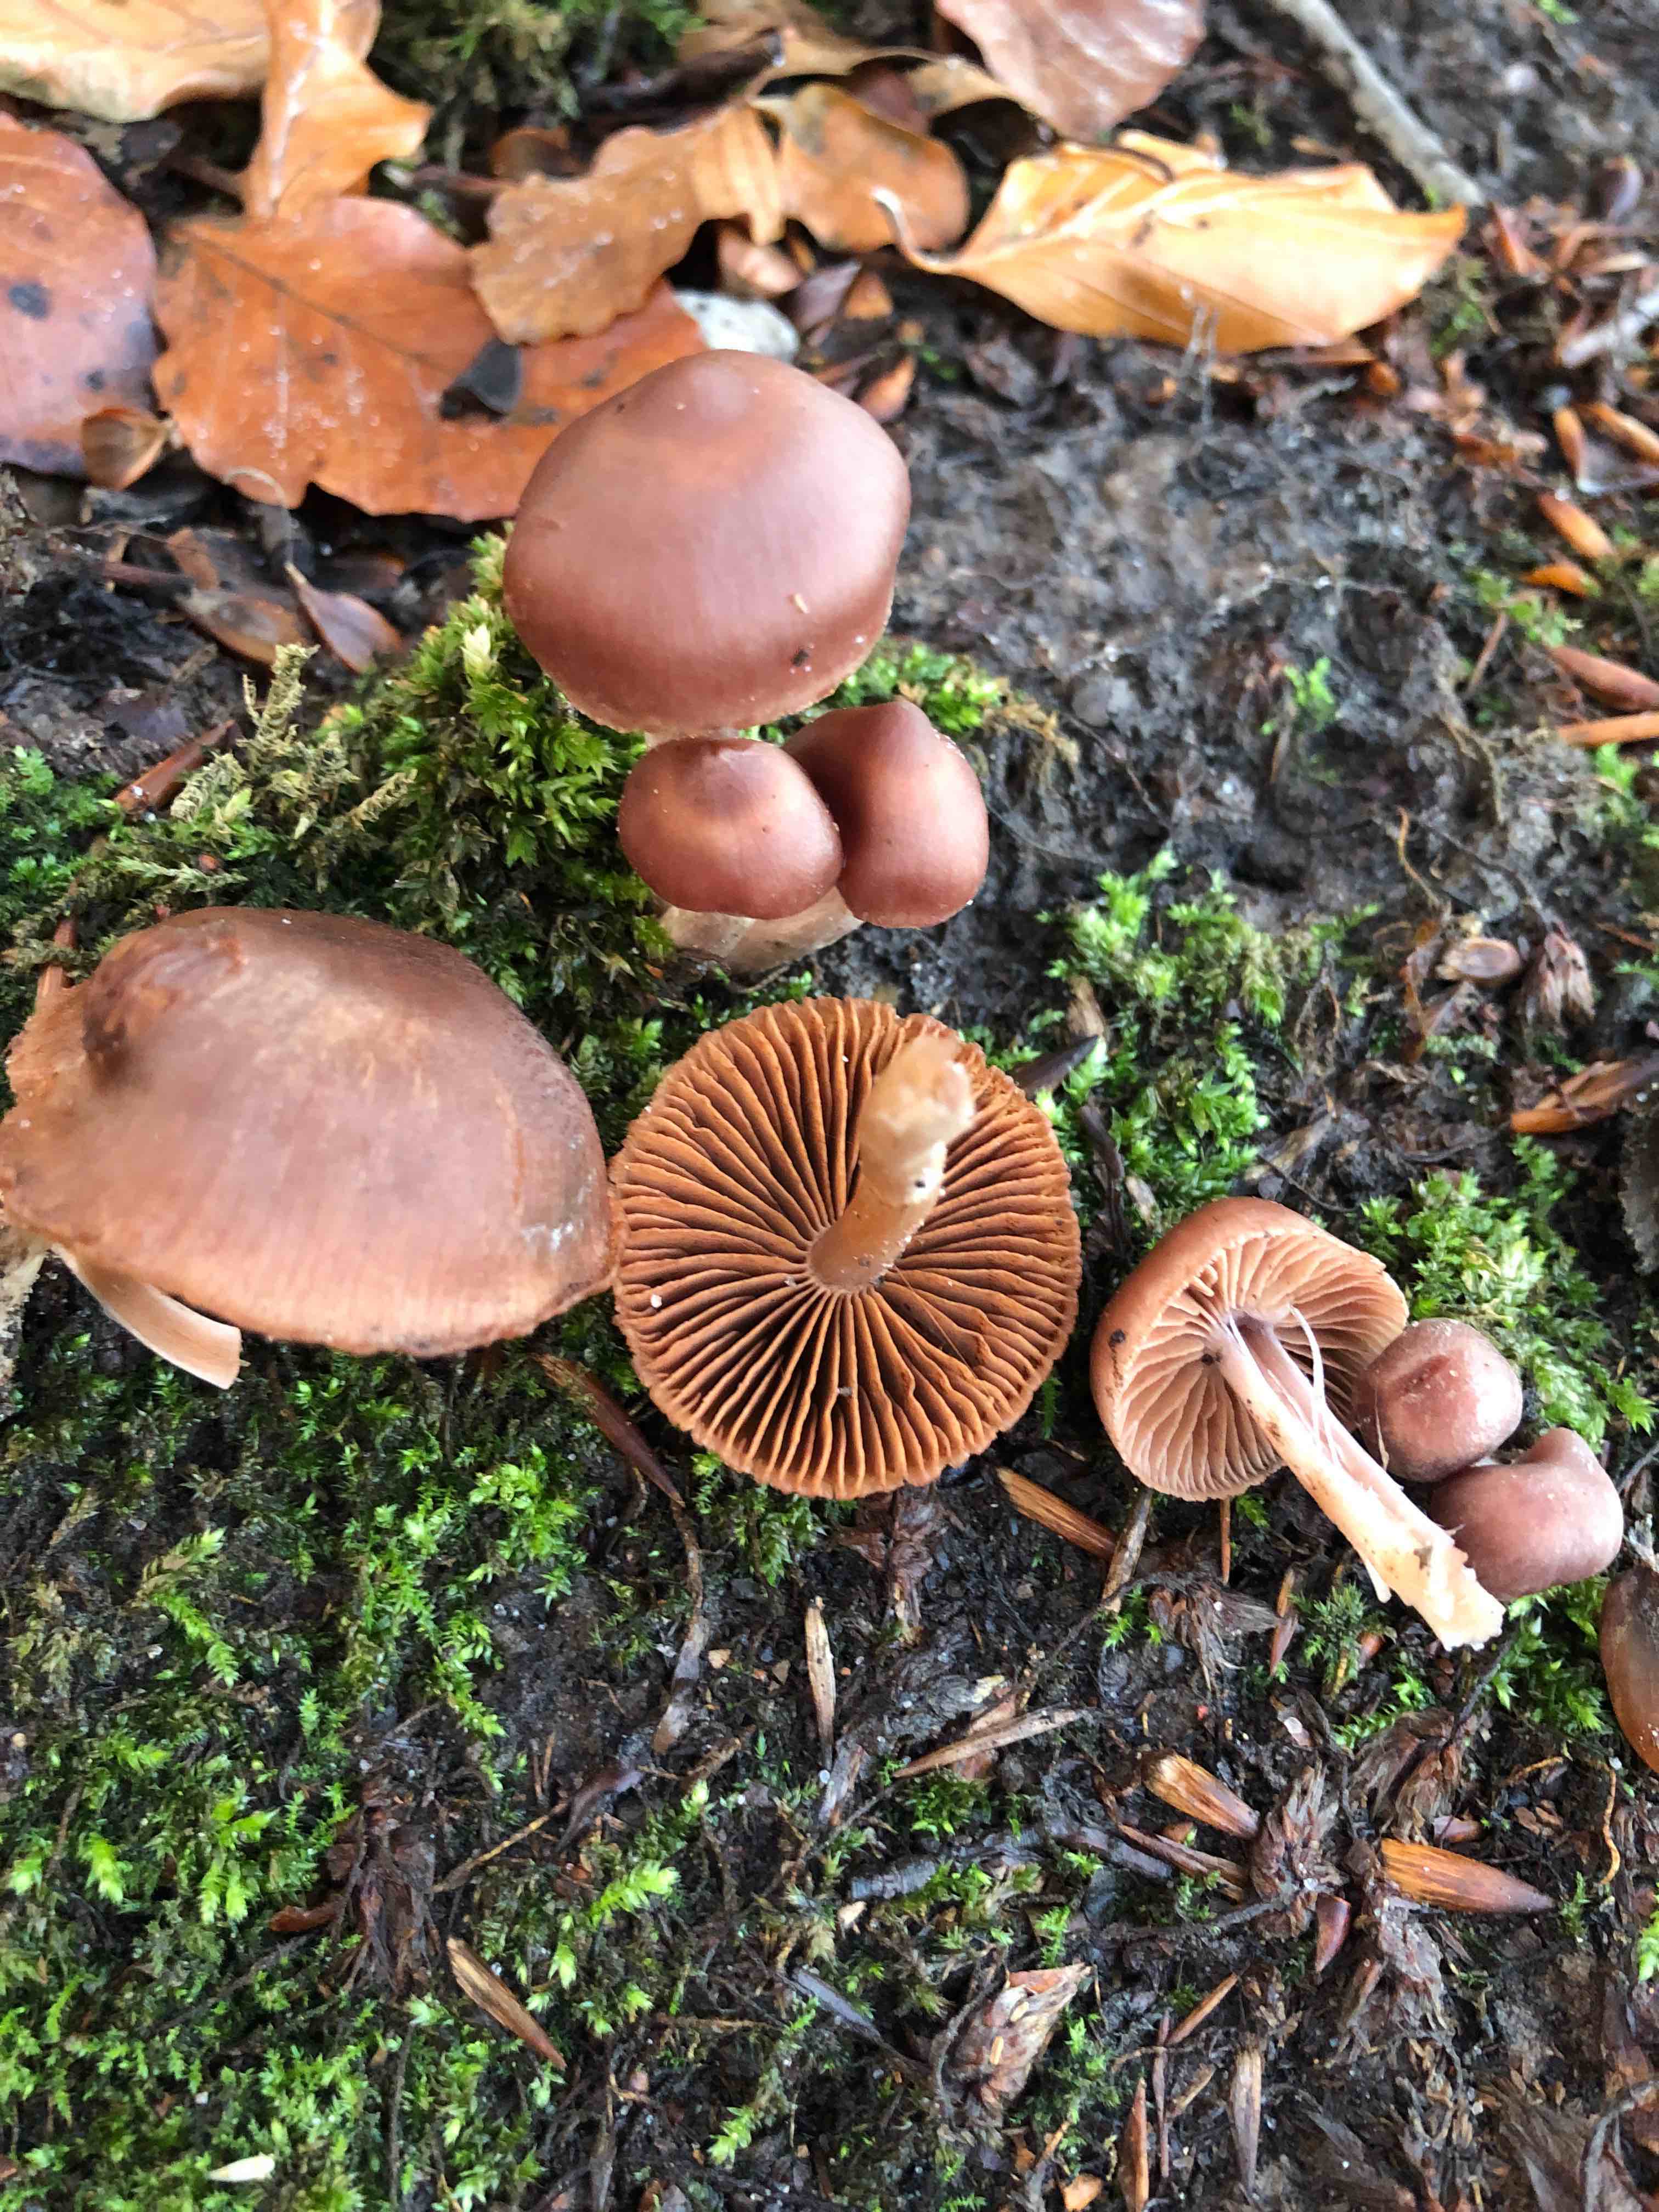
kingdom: Fungi
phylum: Basidiomycota
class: Agaricomycetes
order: Agaricales
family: Cortinariaceae
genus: Cortinarius
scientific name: Cortinarius
